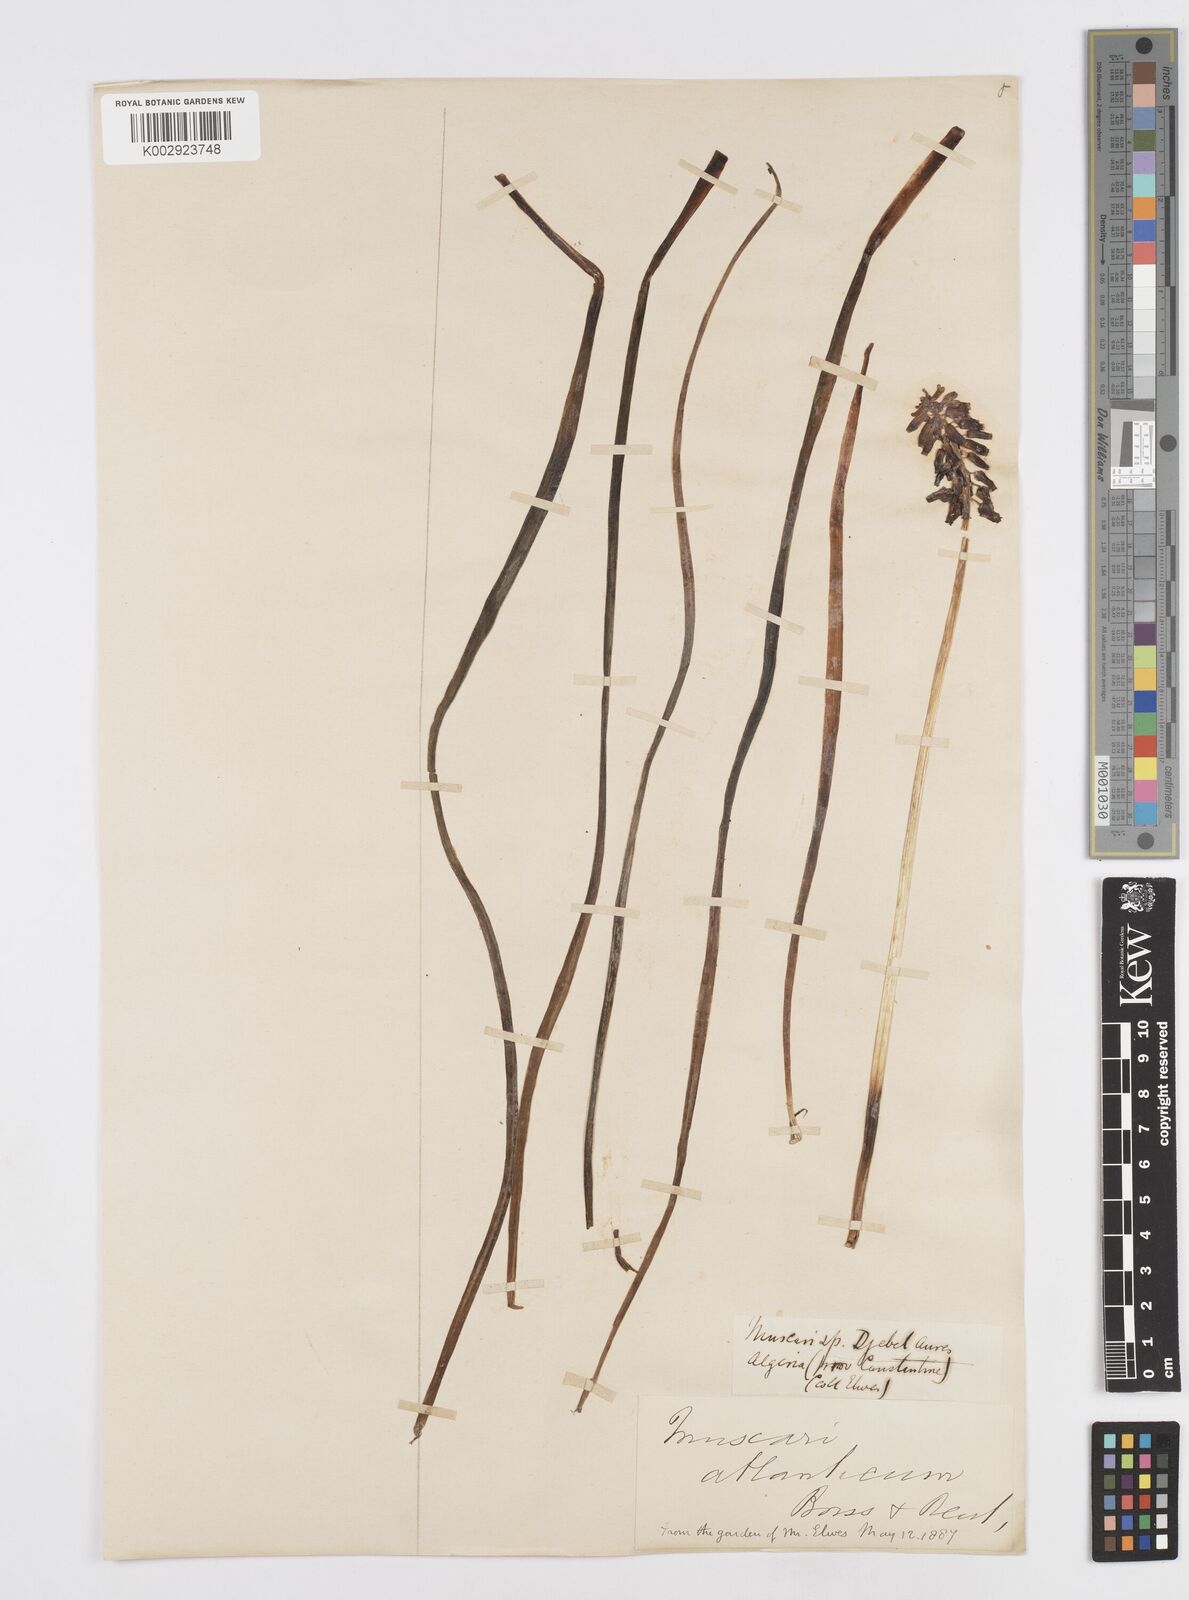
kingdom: Plantae
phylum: Tracheophyta
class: Liliopsida
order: Asparagales
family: Asparagaceae
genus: Muscari
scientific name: Muscari neglectum
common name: Grape-hyacinth
